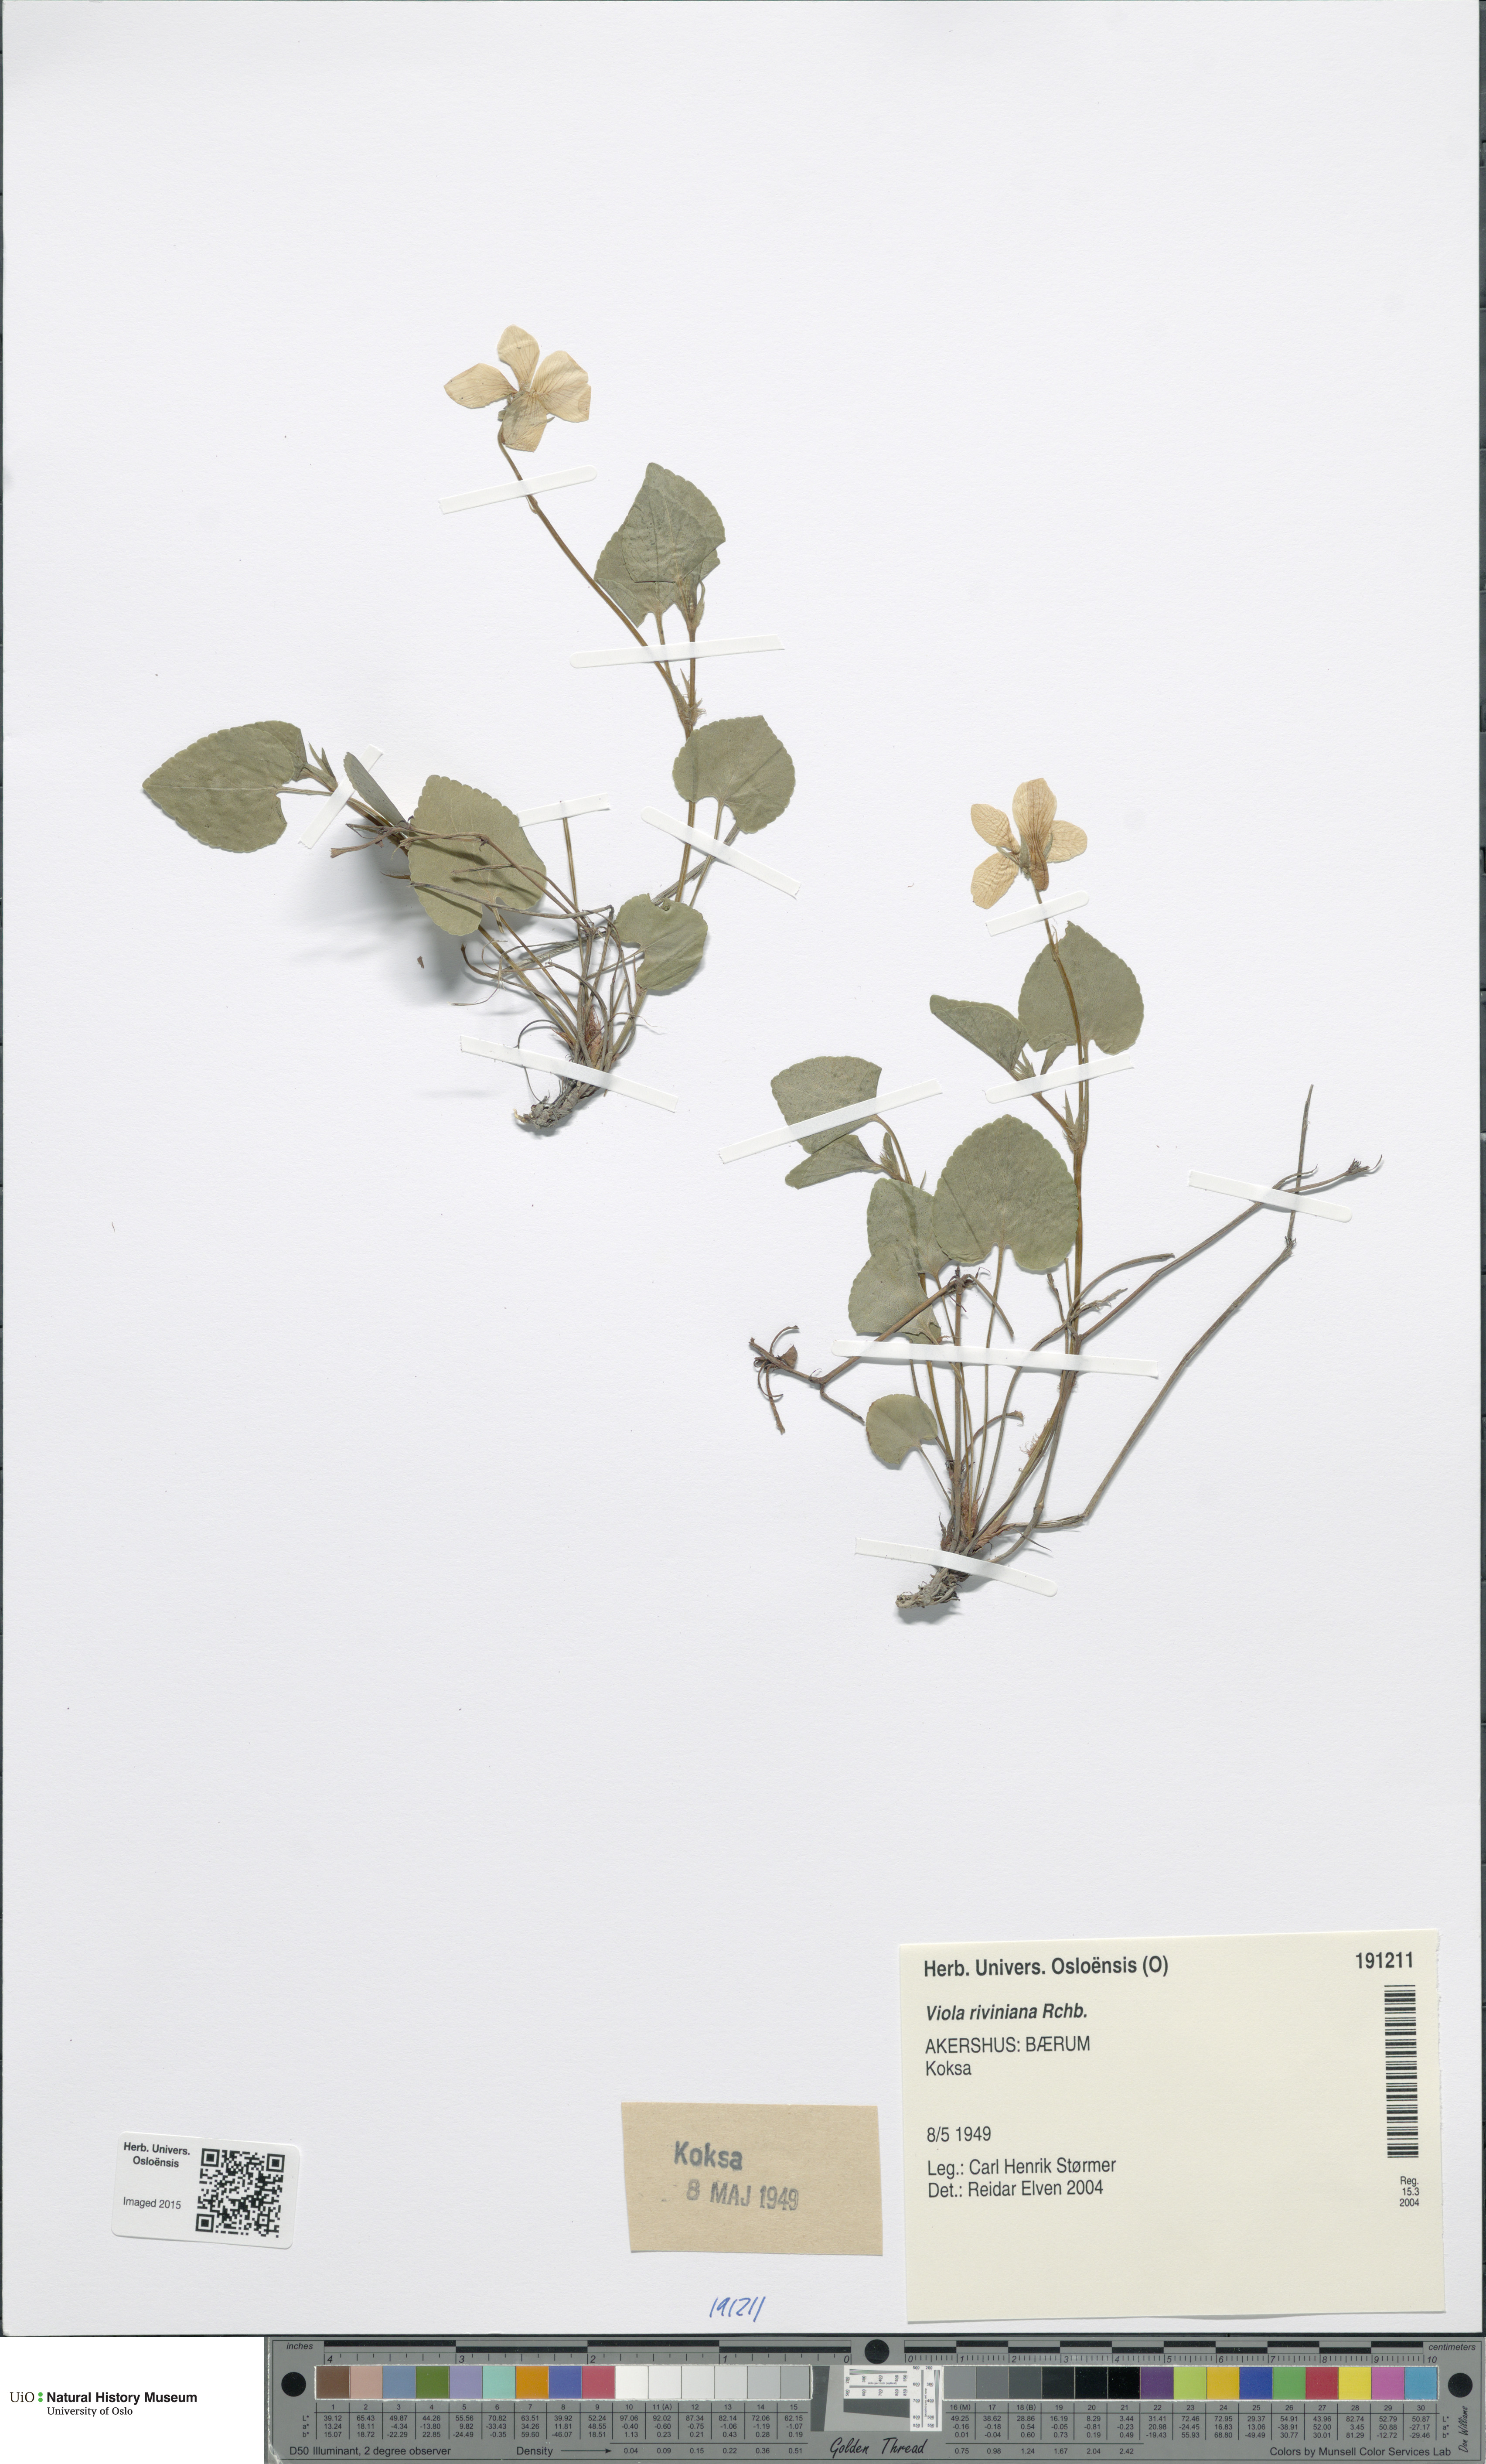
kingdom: Plantae
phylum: Tracheophyta
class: Magnoliopsida
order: Malpighiales
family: Violaceae
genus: Viola
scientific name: Viola riviniana
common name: Common dog-violet
